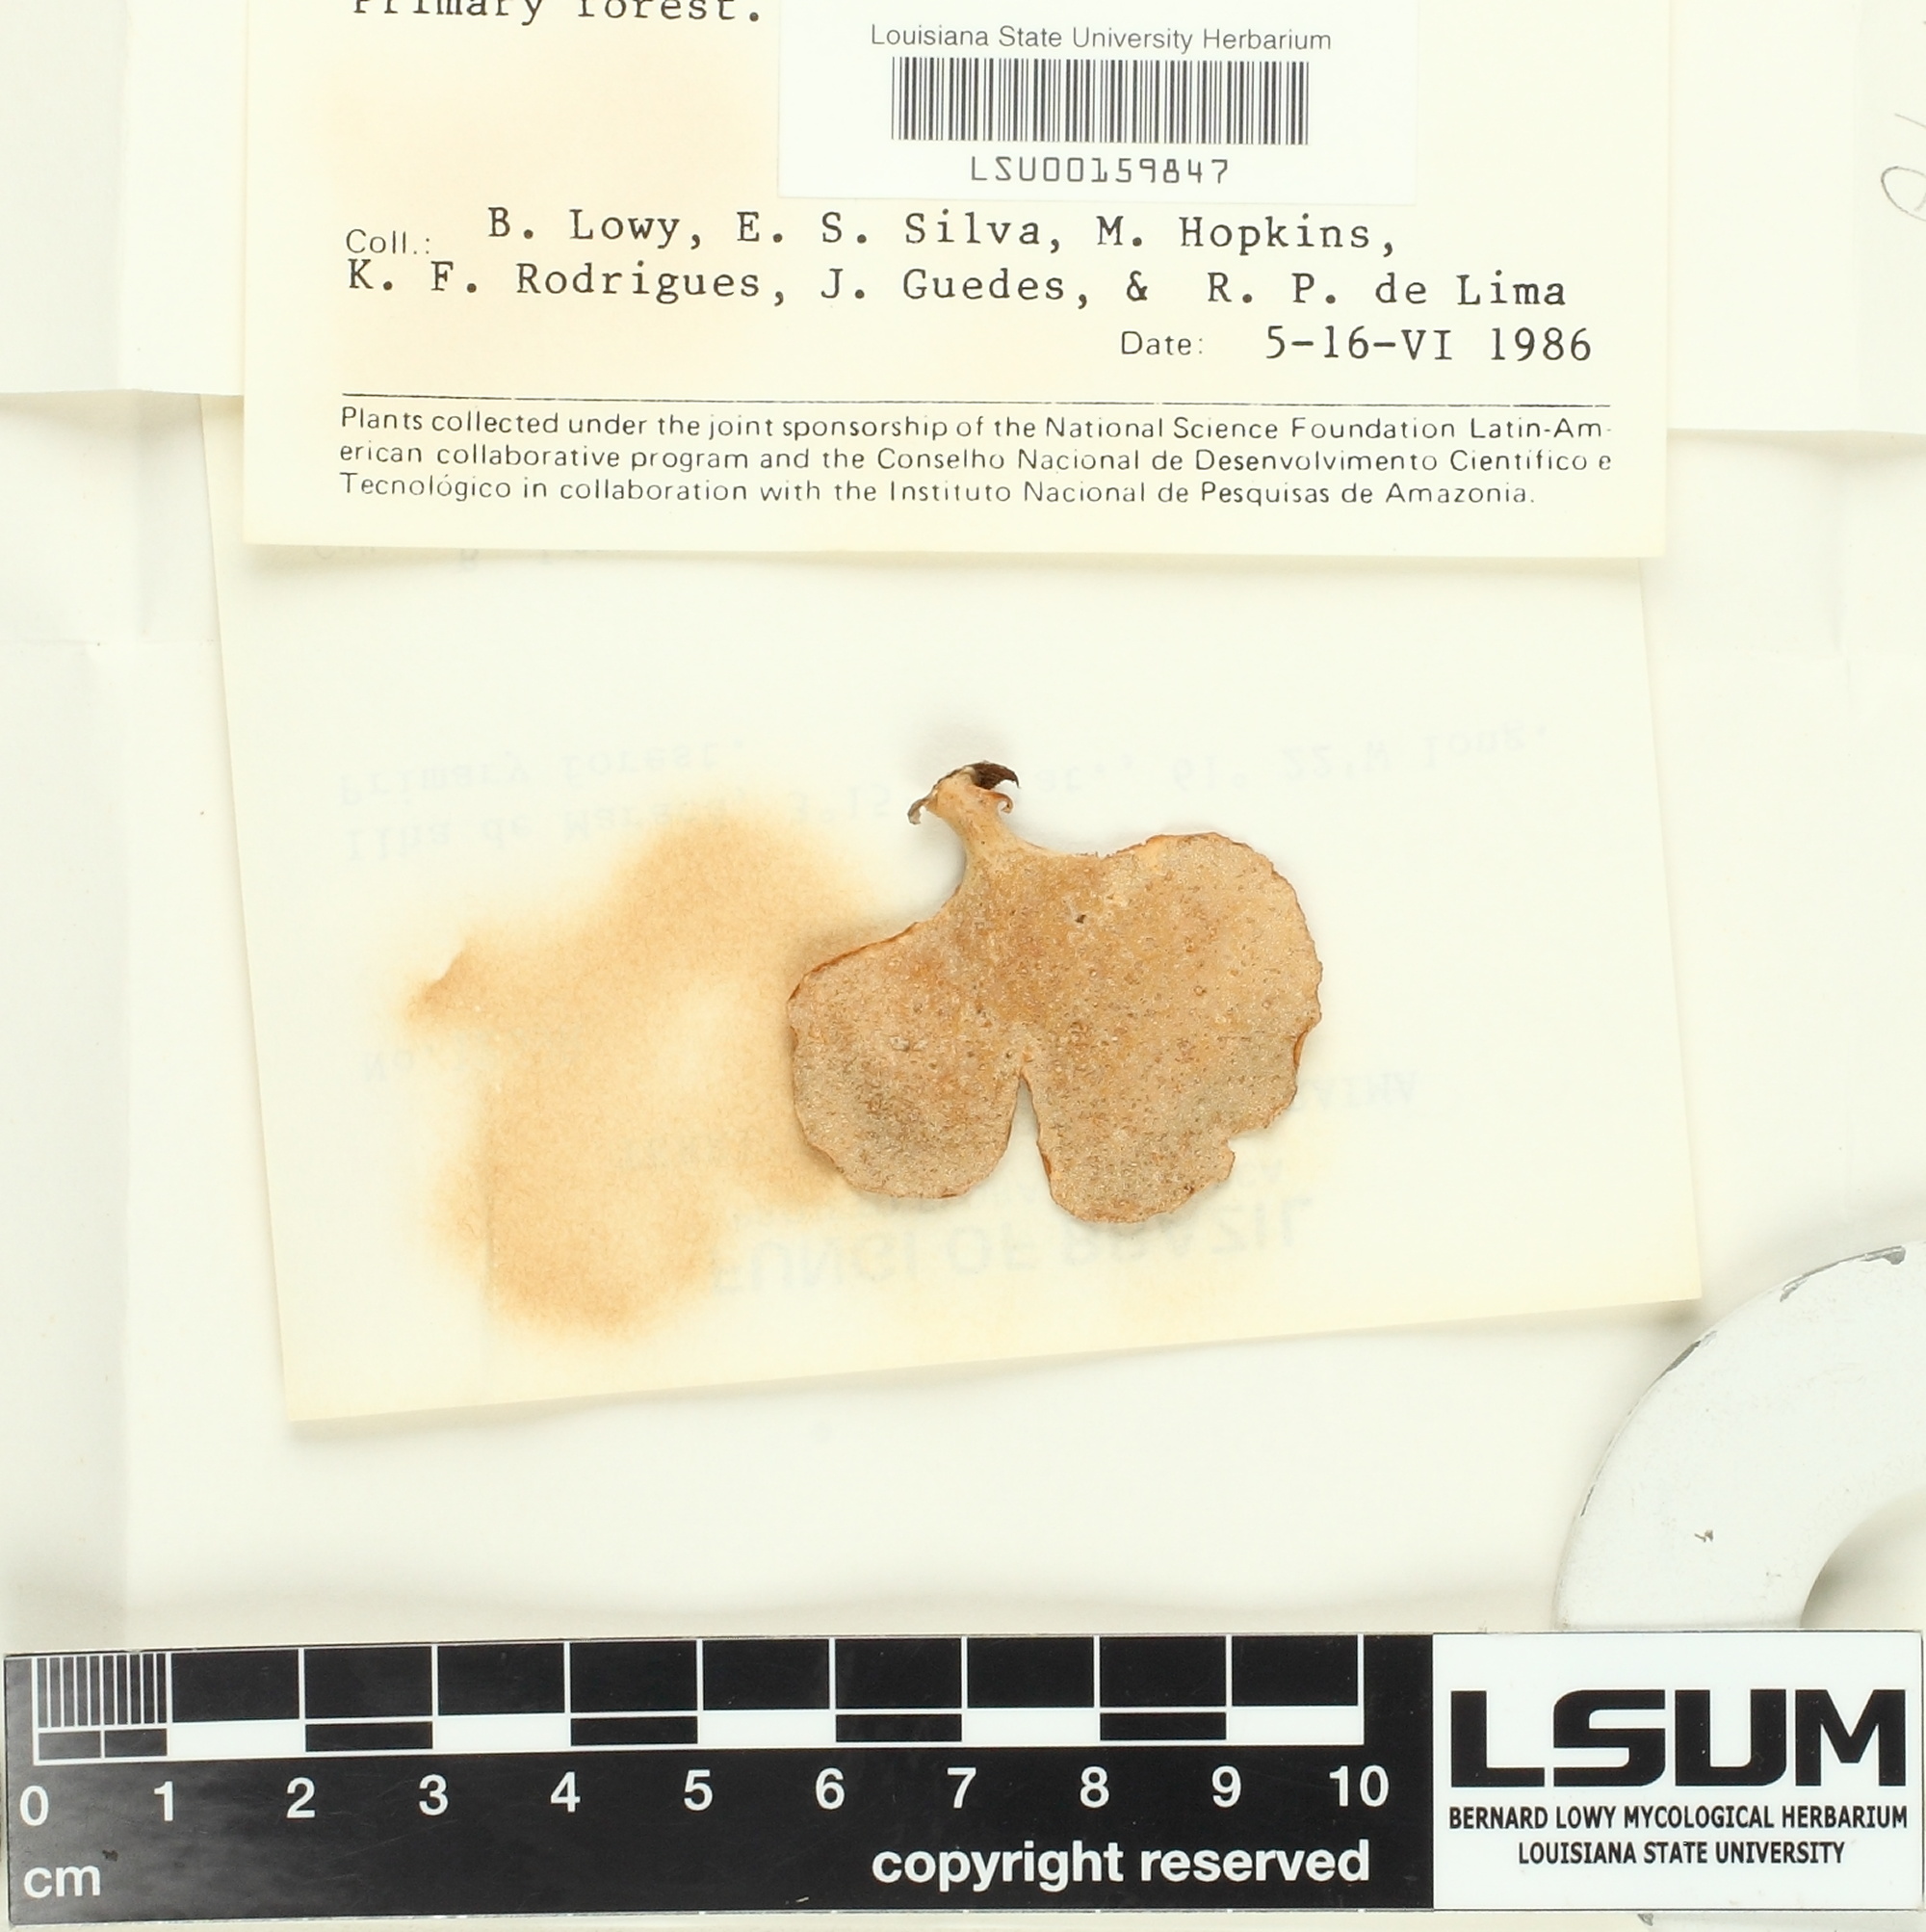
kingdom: Fungi
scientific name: Fungi
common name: Fungi
